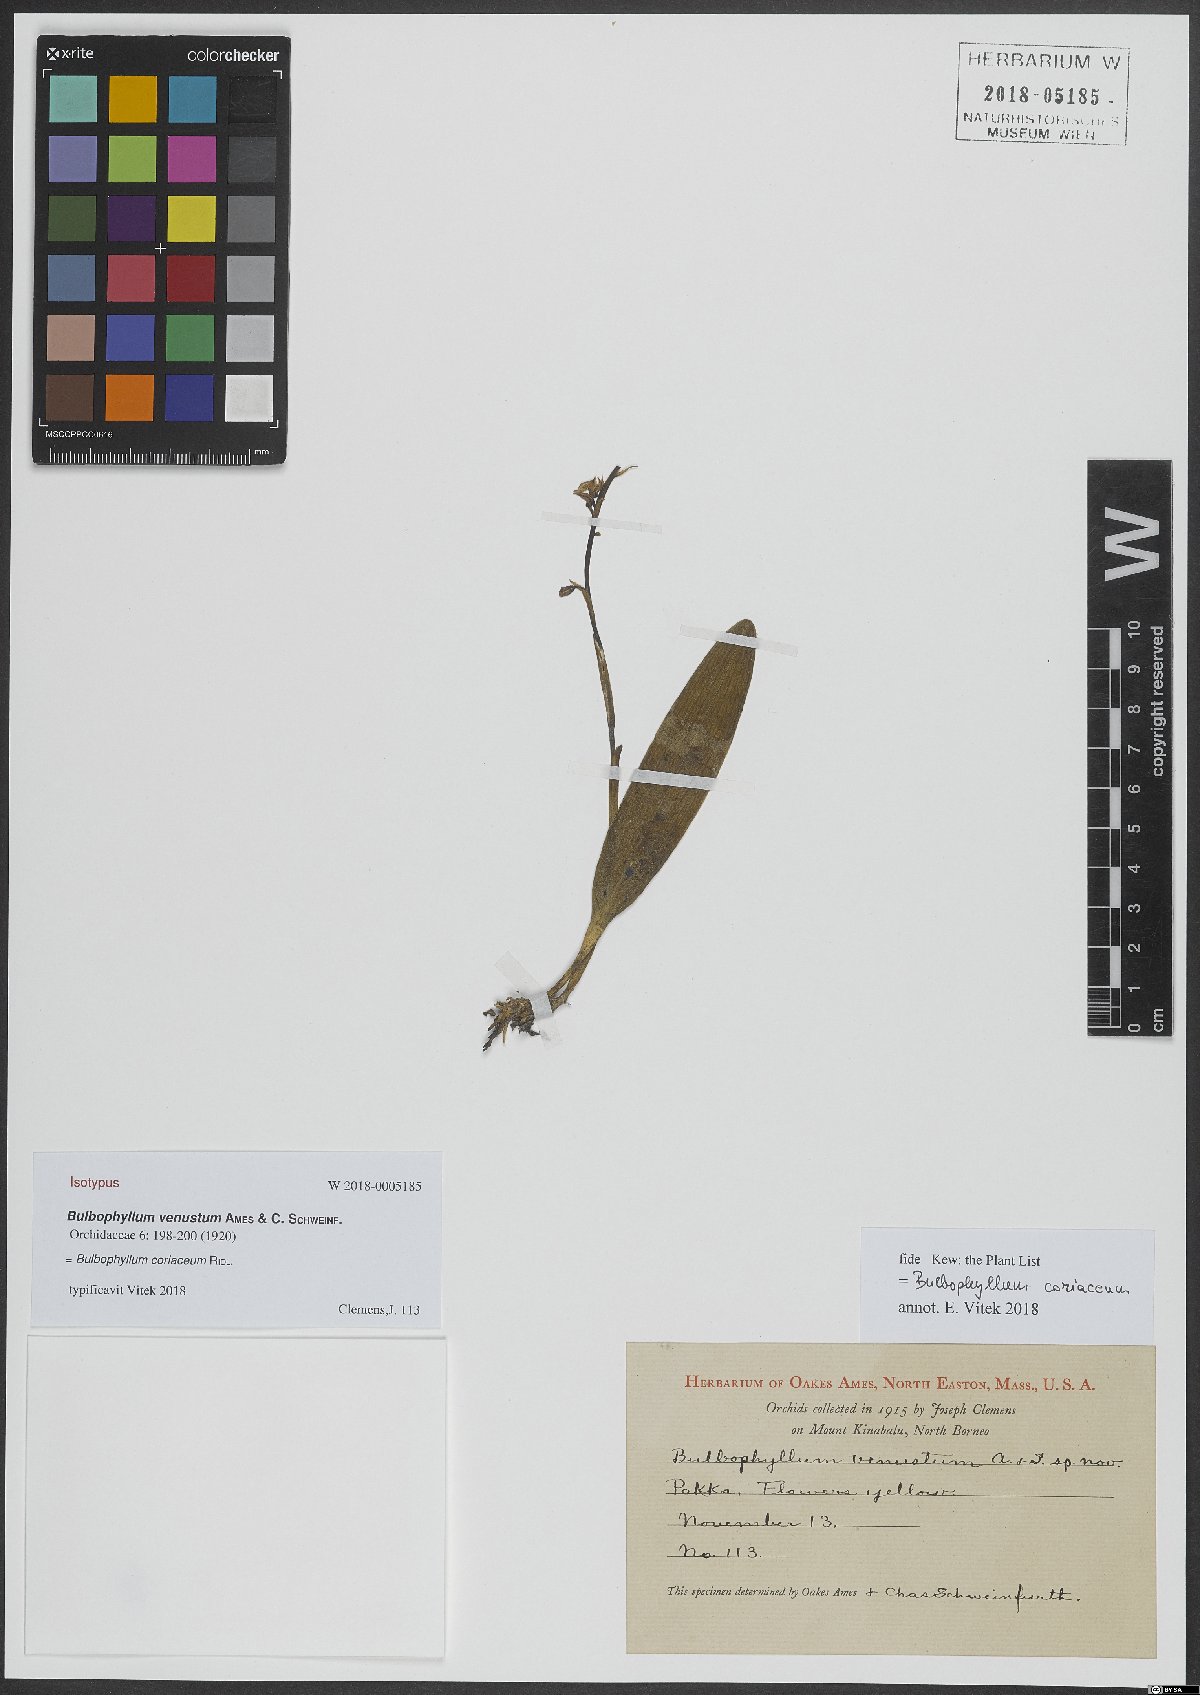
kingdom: Plantae
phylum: Tracheophyta
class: Liliopsida
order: Asparagales
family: Orchidaceae
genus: Bulbophyllum
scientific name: Bulbophyllum unguiculatum
